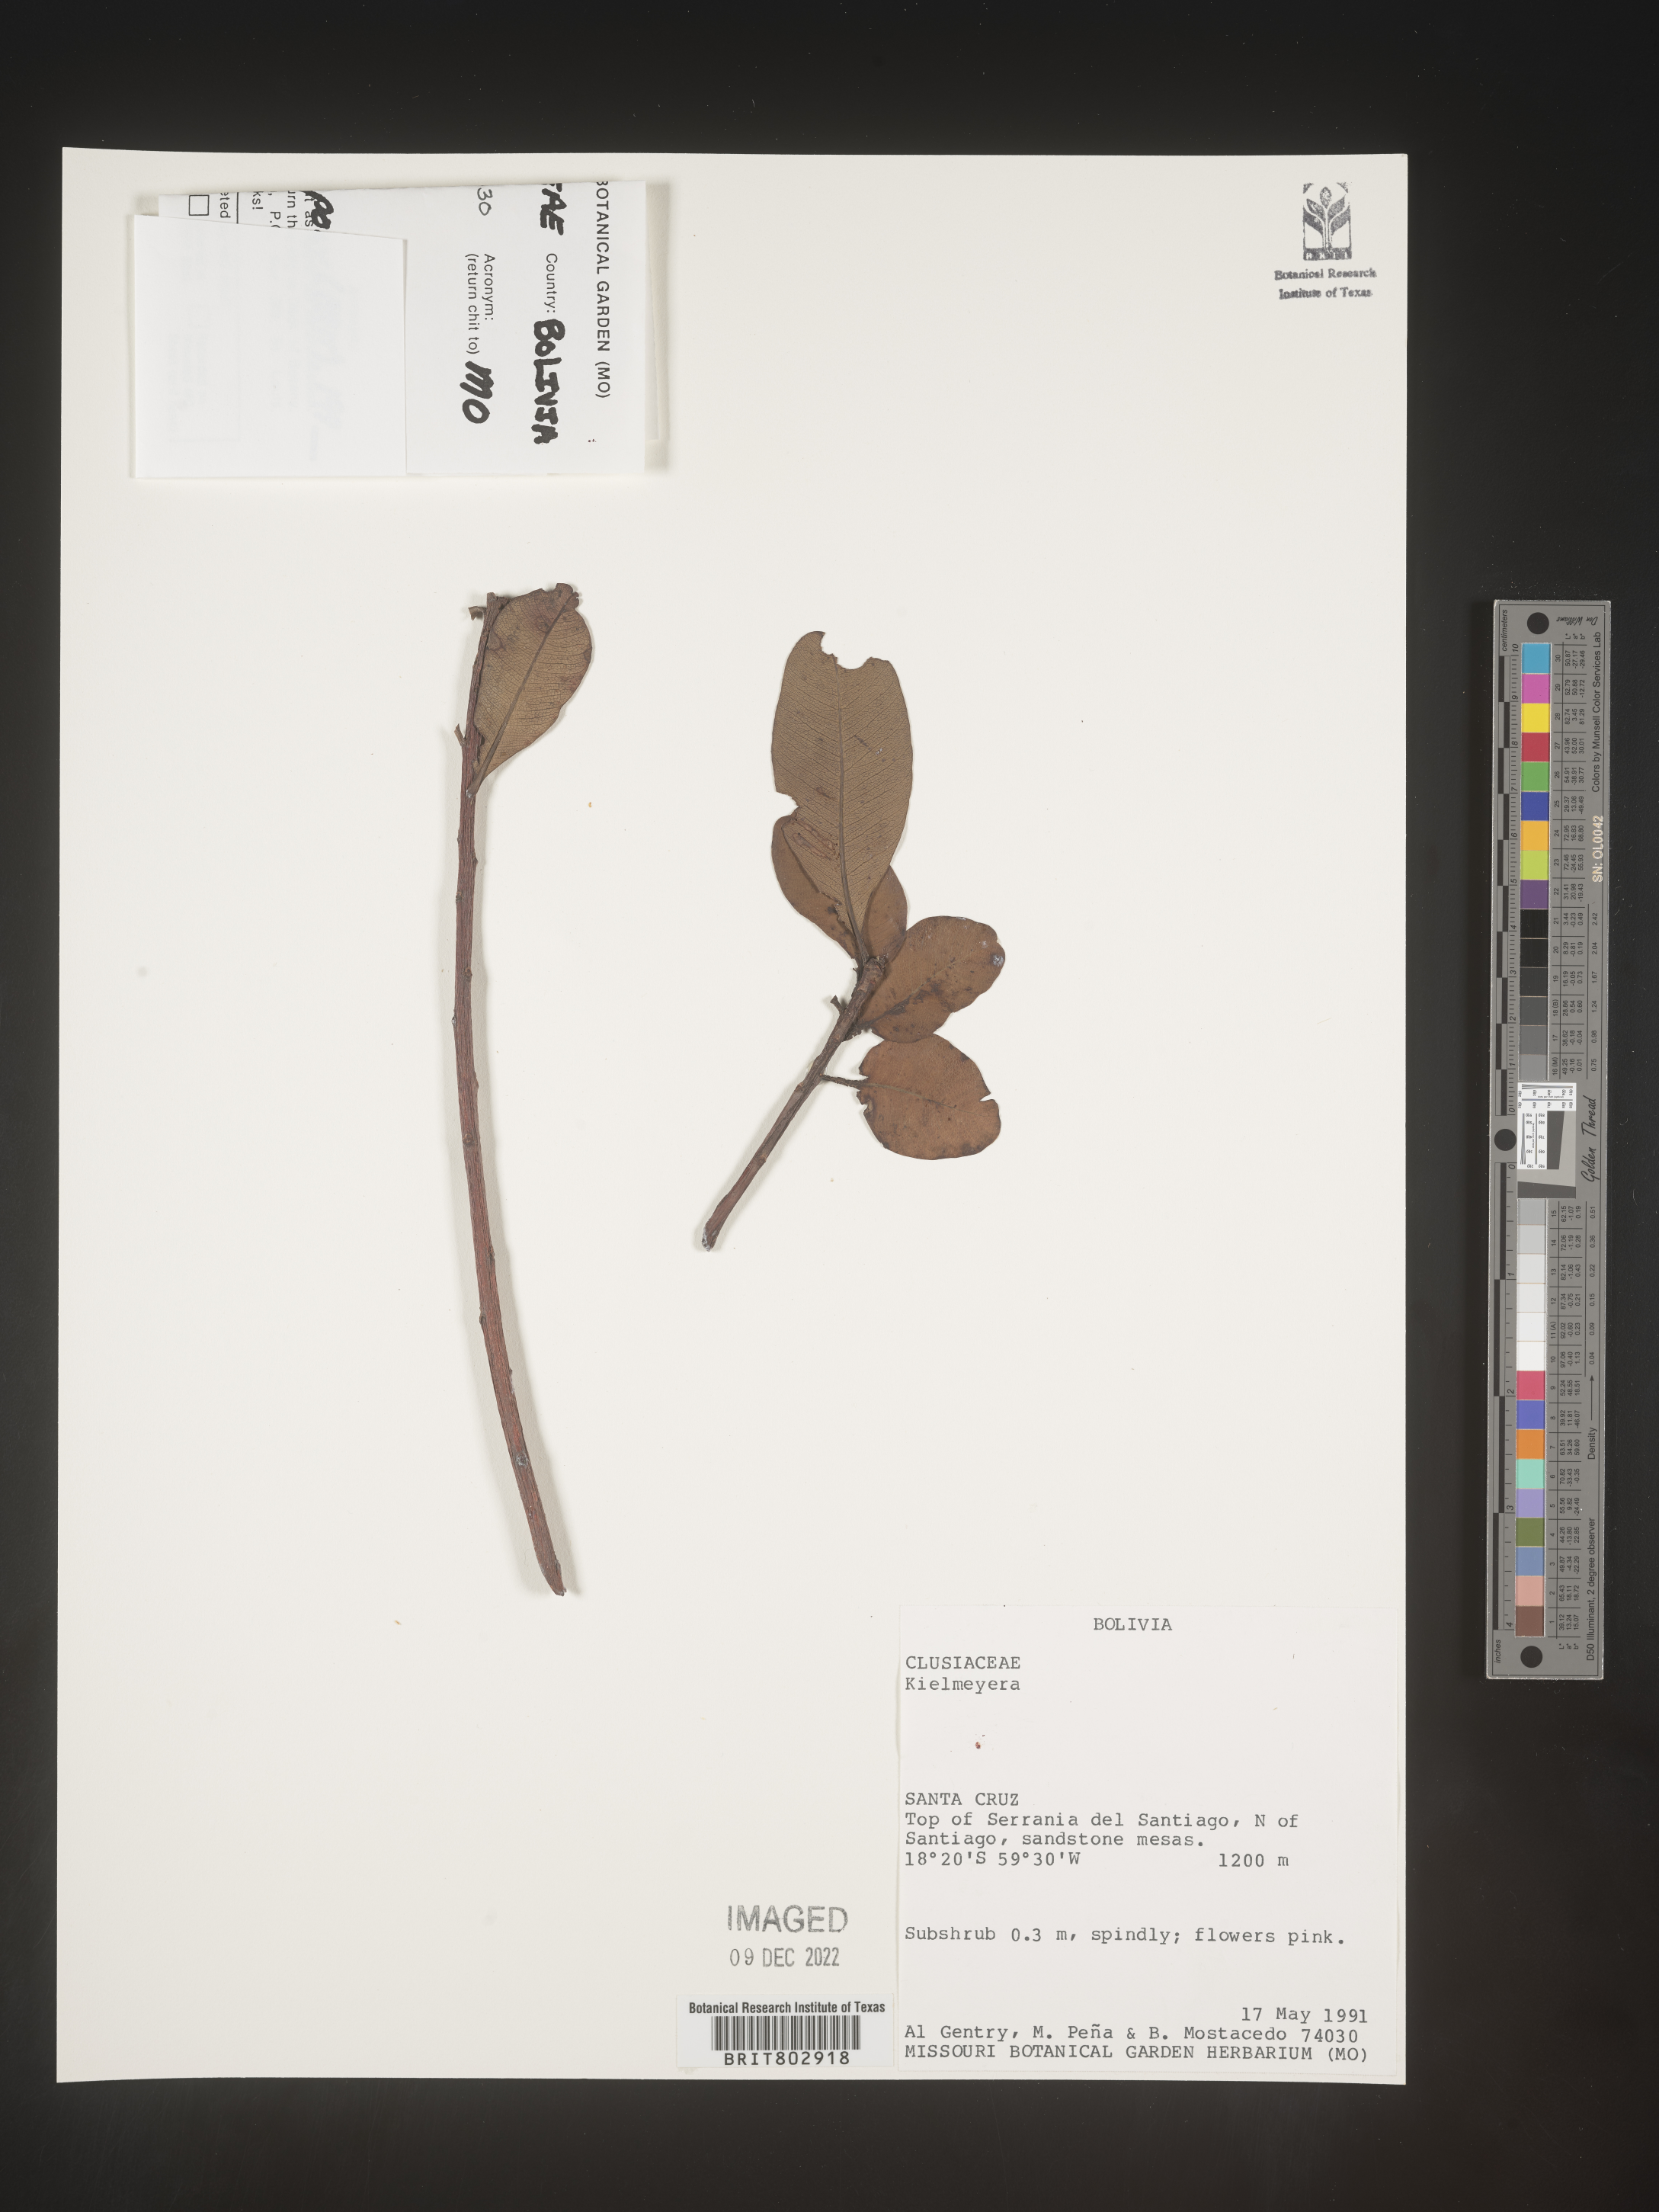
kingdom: Plantae
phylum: Tracheophyta
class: Magnoliopsida
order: Malpighiales
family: Calophyllaceae
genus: Kielmeyera
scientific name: Kielmeyera
